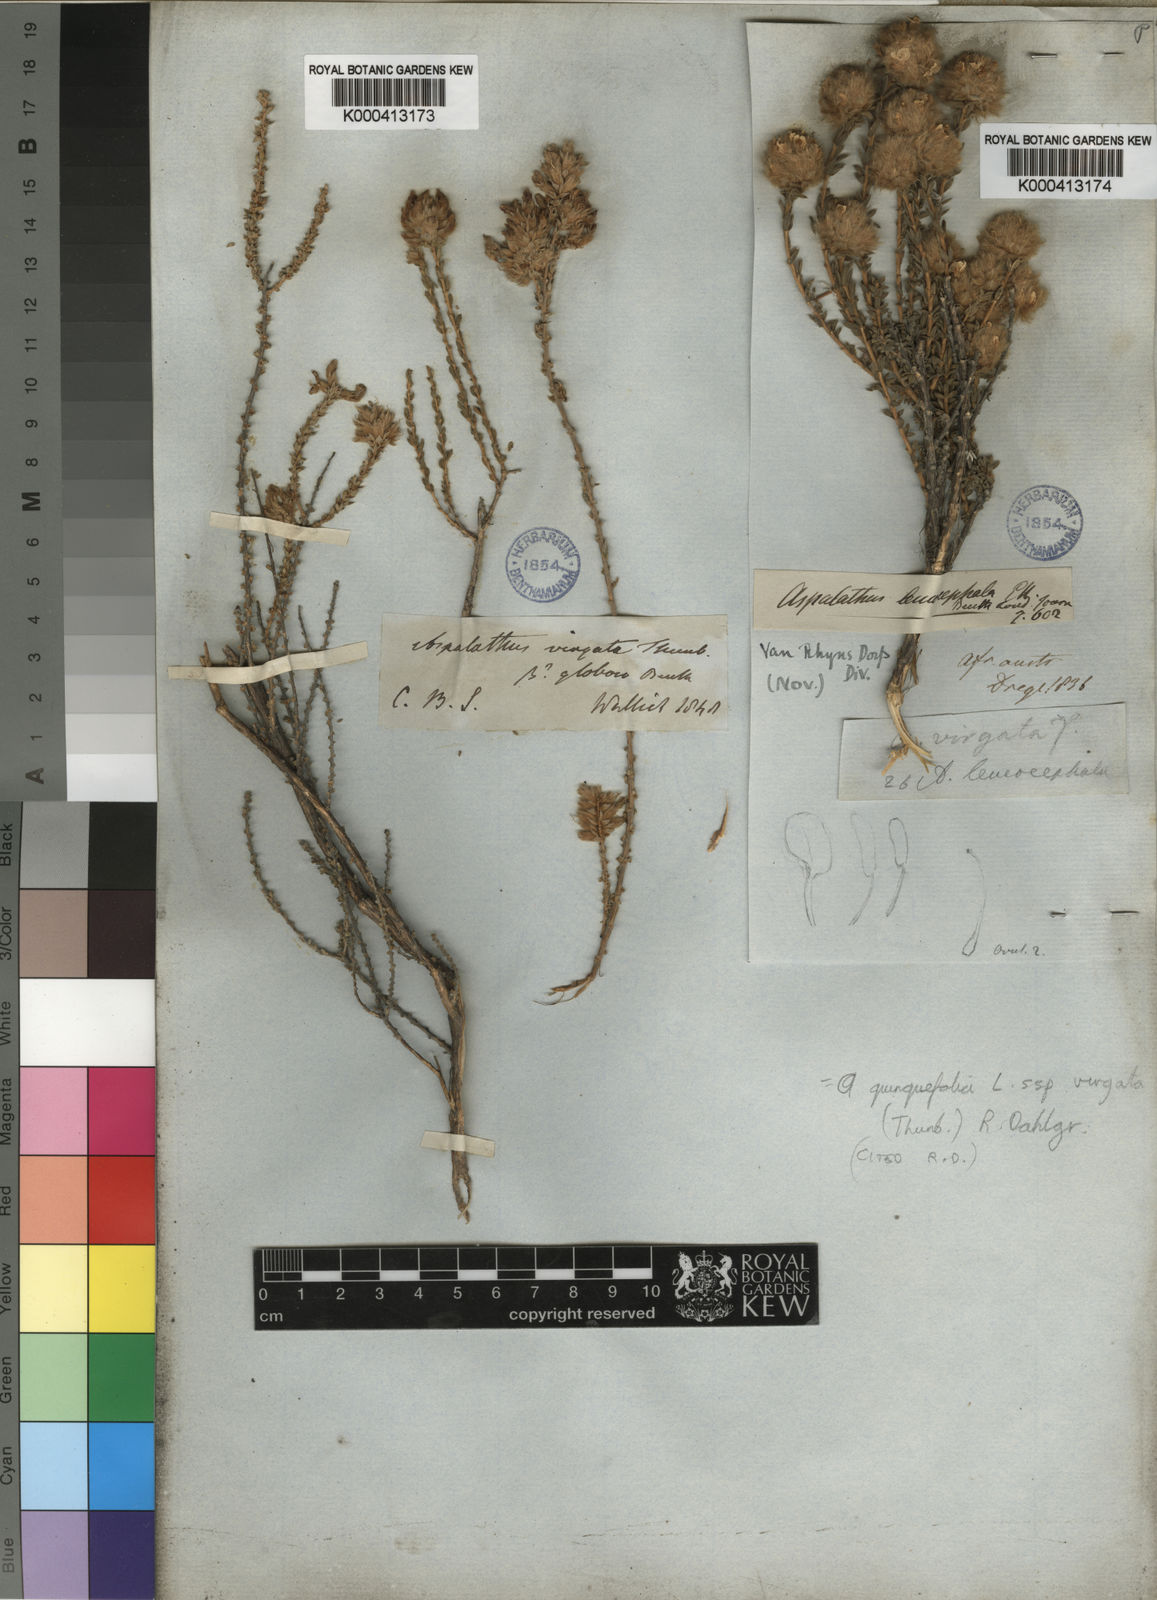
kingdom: Plantae
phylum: Tracheophyta
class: Magnoliopsida
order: Fabales
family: Fabaceae
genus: Aspalathus
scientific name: Aspalathus quinquefolia
